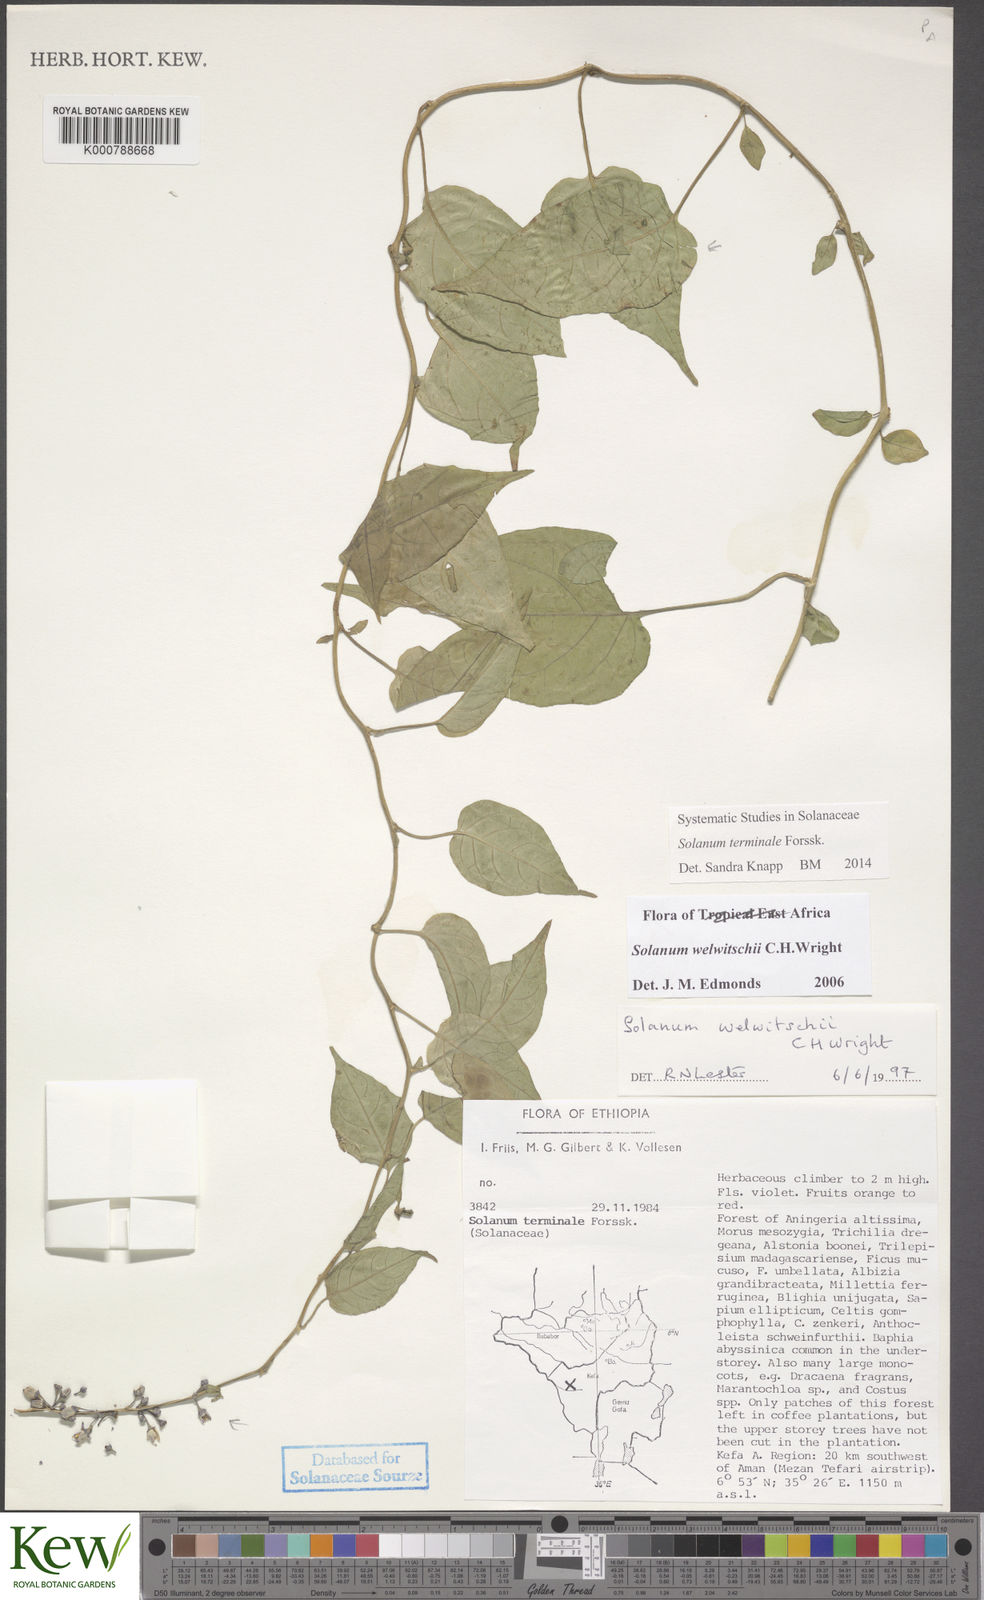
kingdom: Plantae
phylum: Tracheophyta
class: Magnoliopsida
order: Solanales
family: Solanaceae
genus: Solanum
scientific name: Solanum terminale
